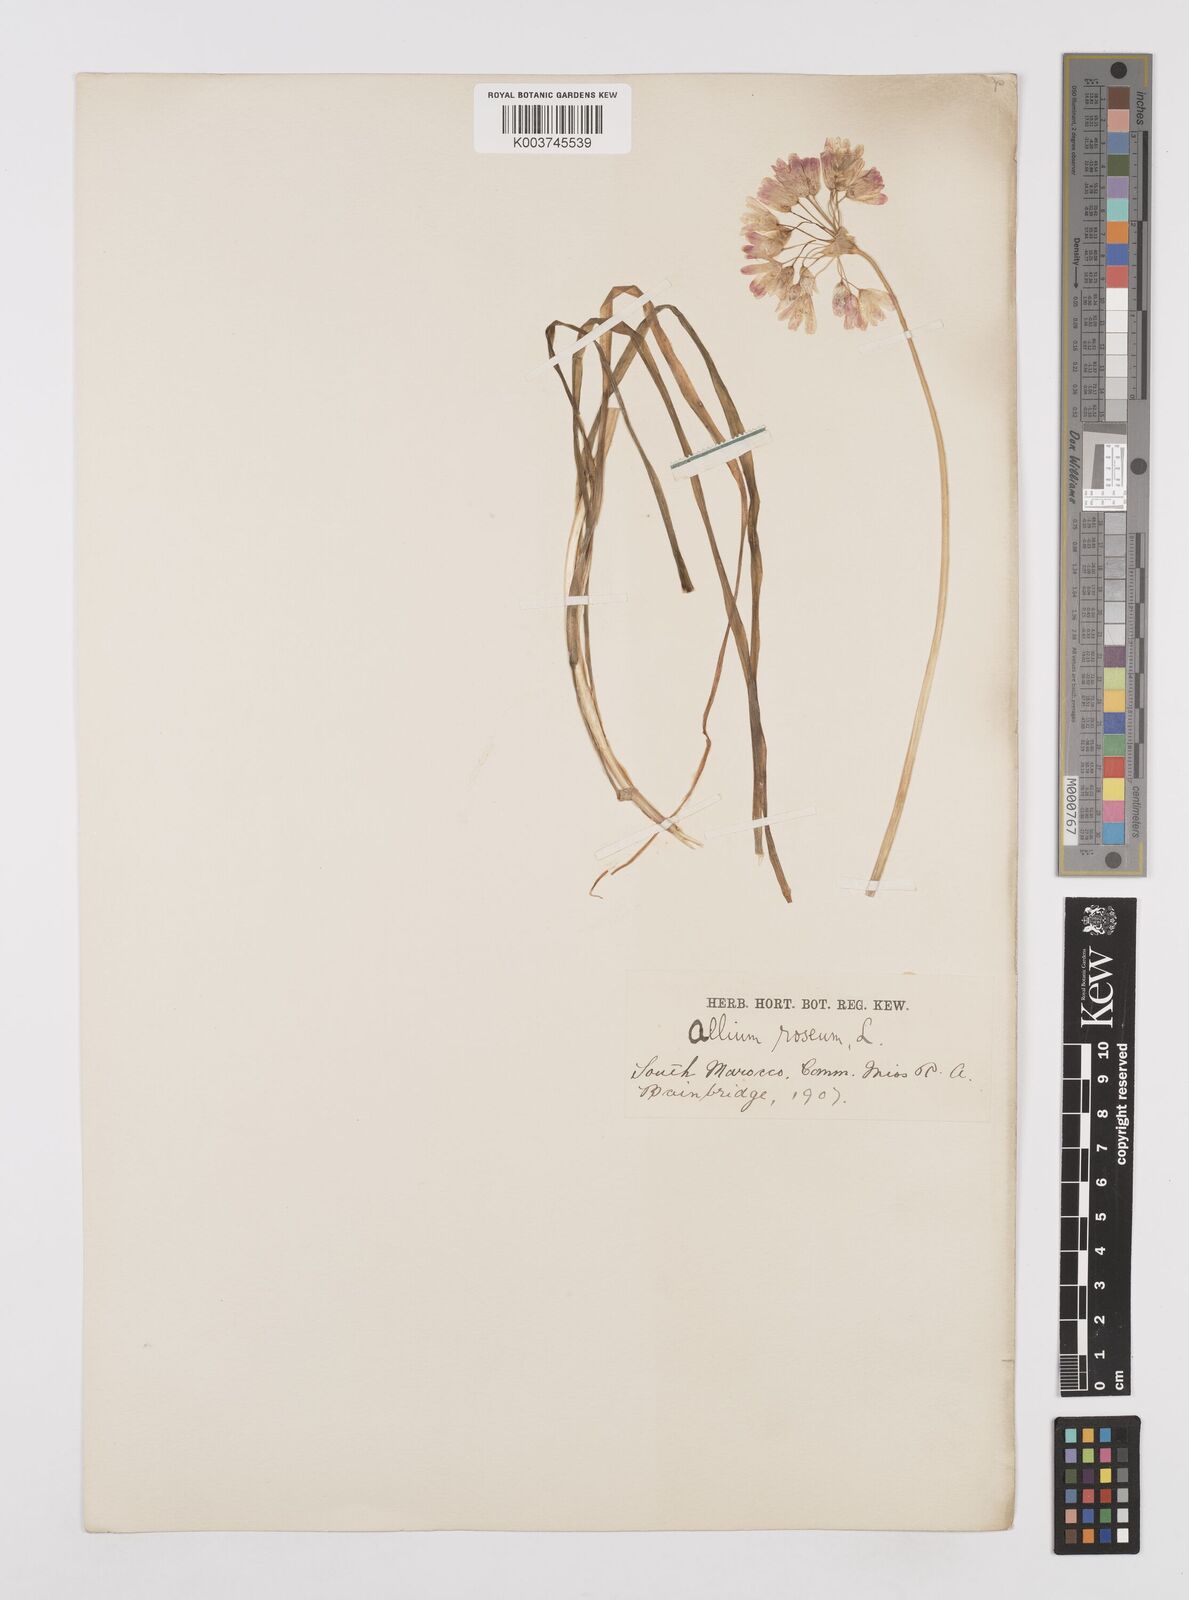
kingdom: Plantae
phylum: Tracheophyta
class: Liliopsida
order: Asparagales
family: Amaryllidaceae
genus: Allium
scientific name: Allium roseum
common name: Rosy garlic
